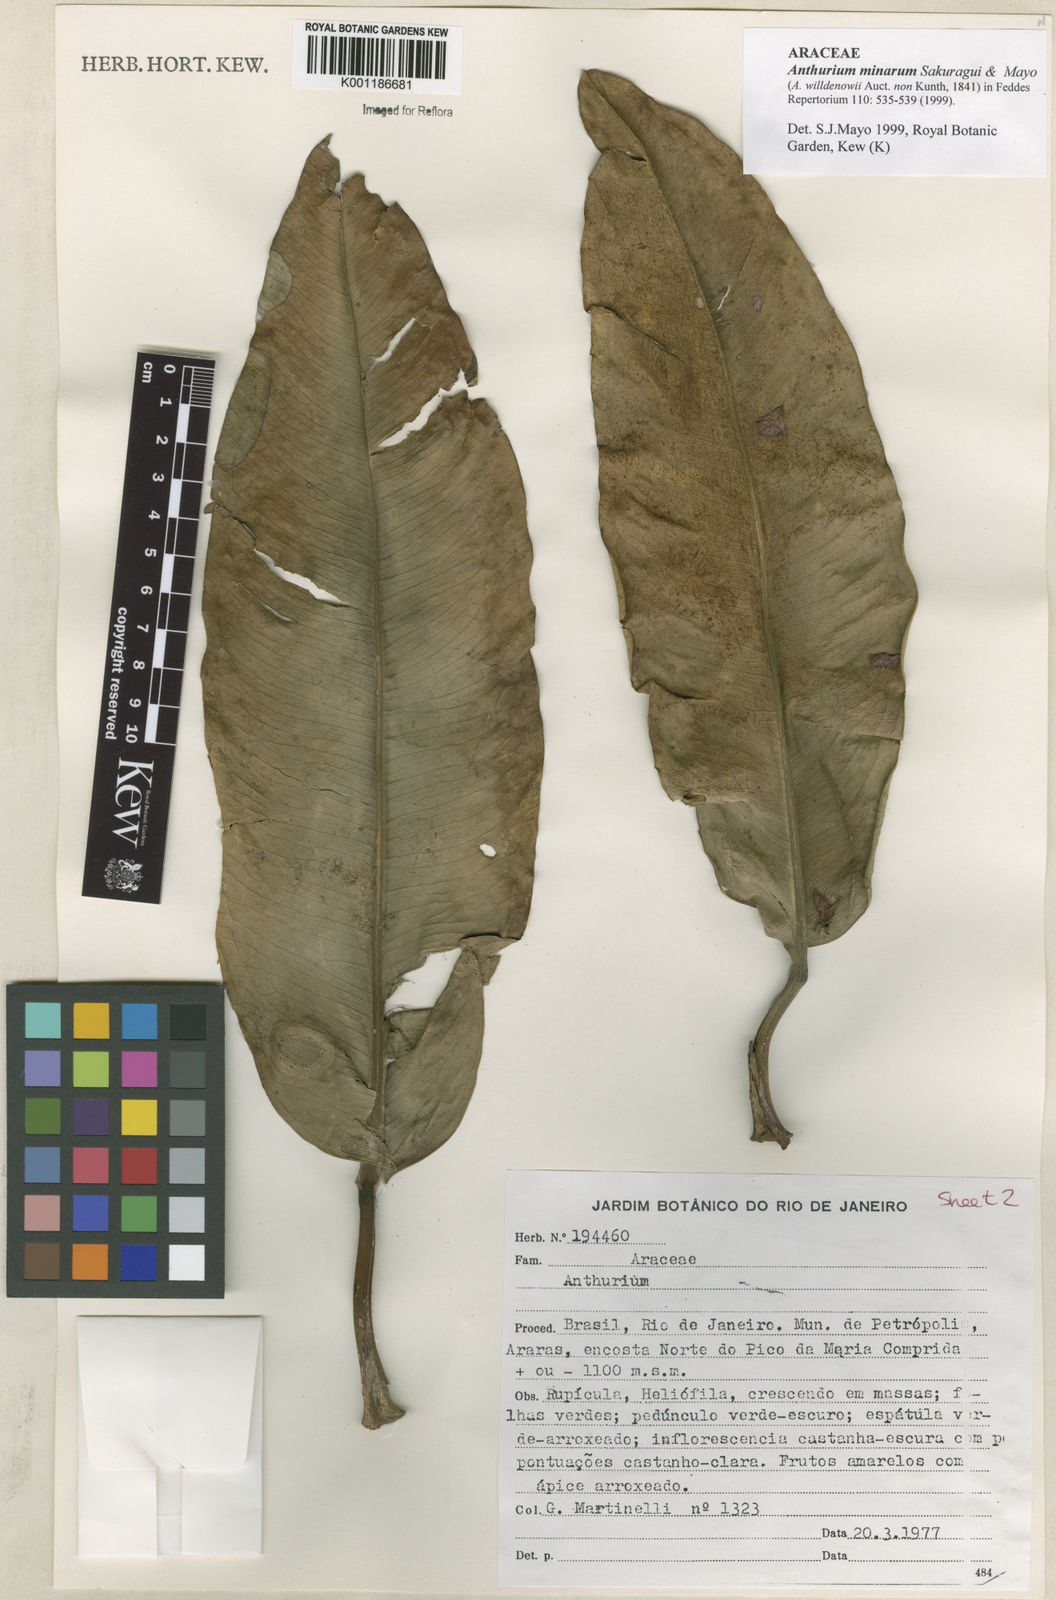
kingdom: Plantae
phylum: Tracheophyta
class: Liliopsida
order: Alismatales
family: Araceae
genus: Anthurium
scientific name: Anthurium minarum
